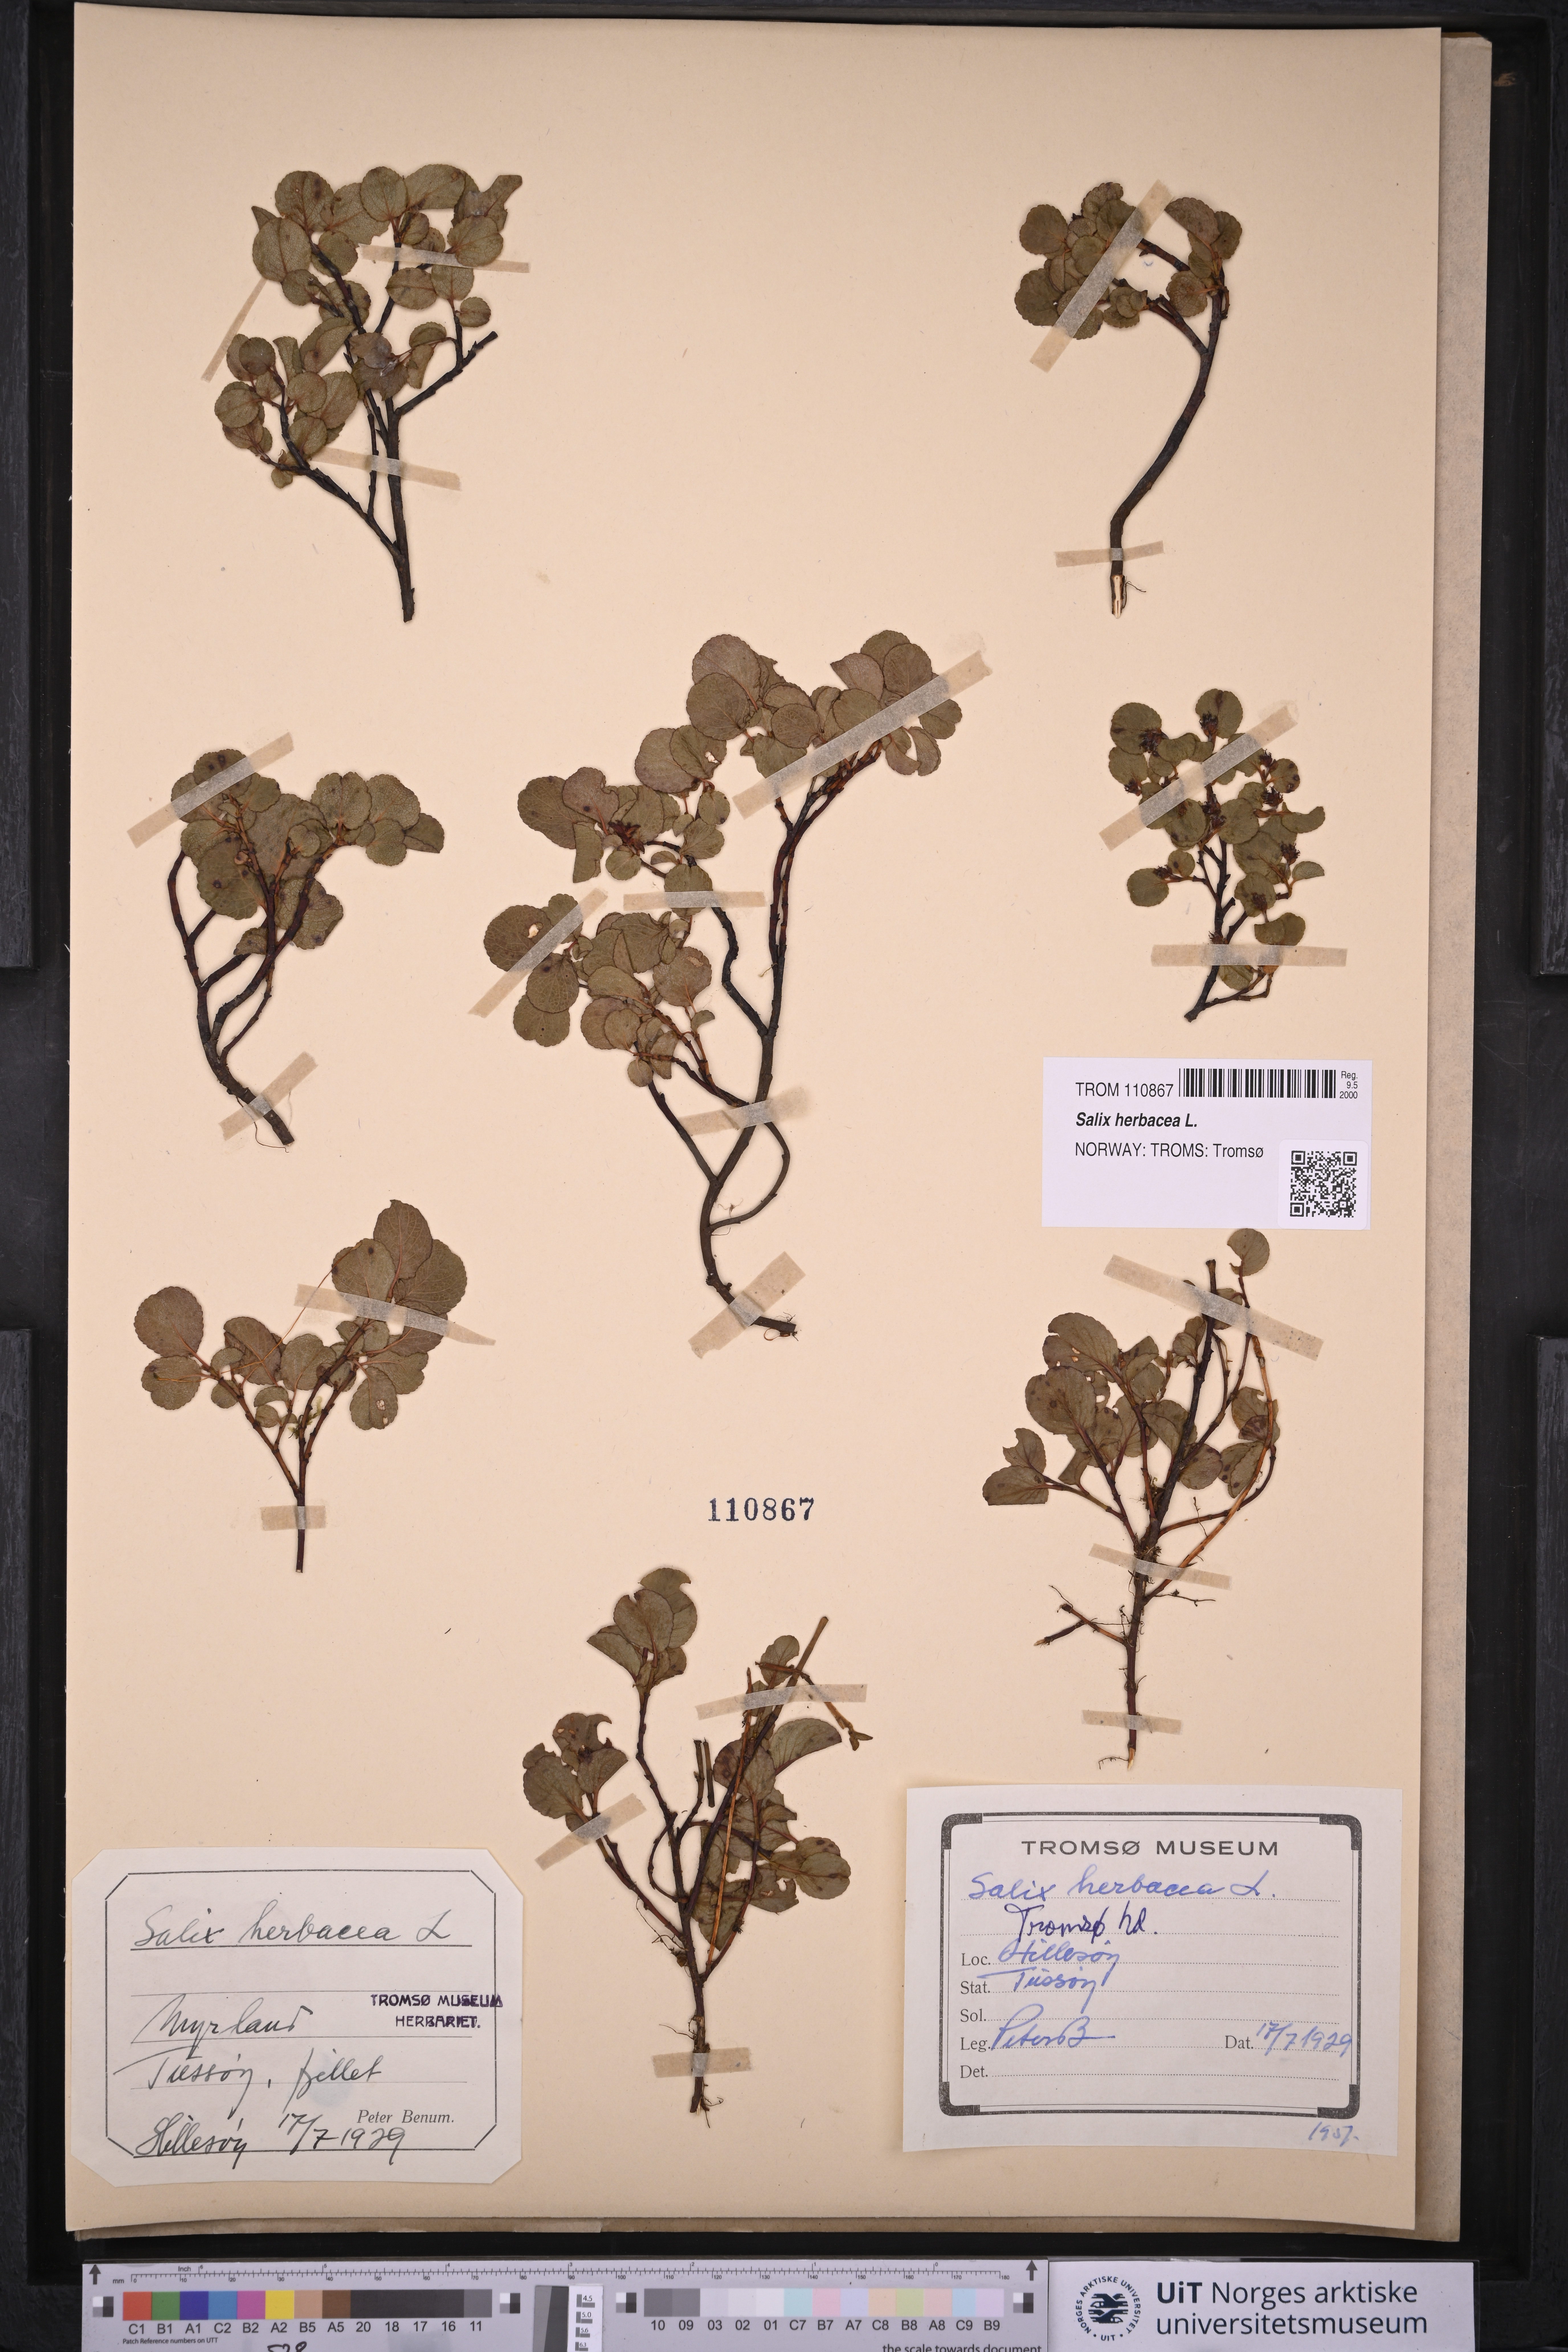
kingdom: Plantae
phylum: Tracheophyta
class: Magnoliopsida
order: Malpighiales
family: Salicaceae
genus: Salix
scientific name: Salix herbacea
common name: Dwarf willow
